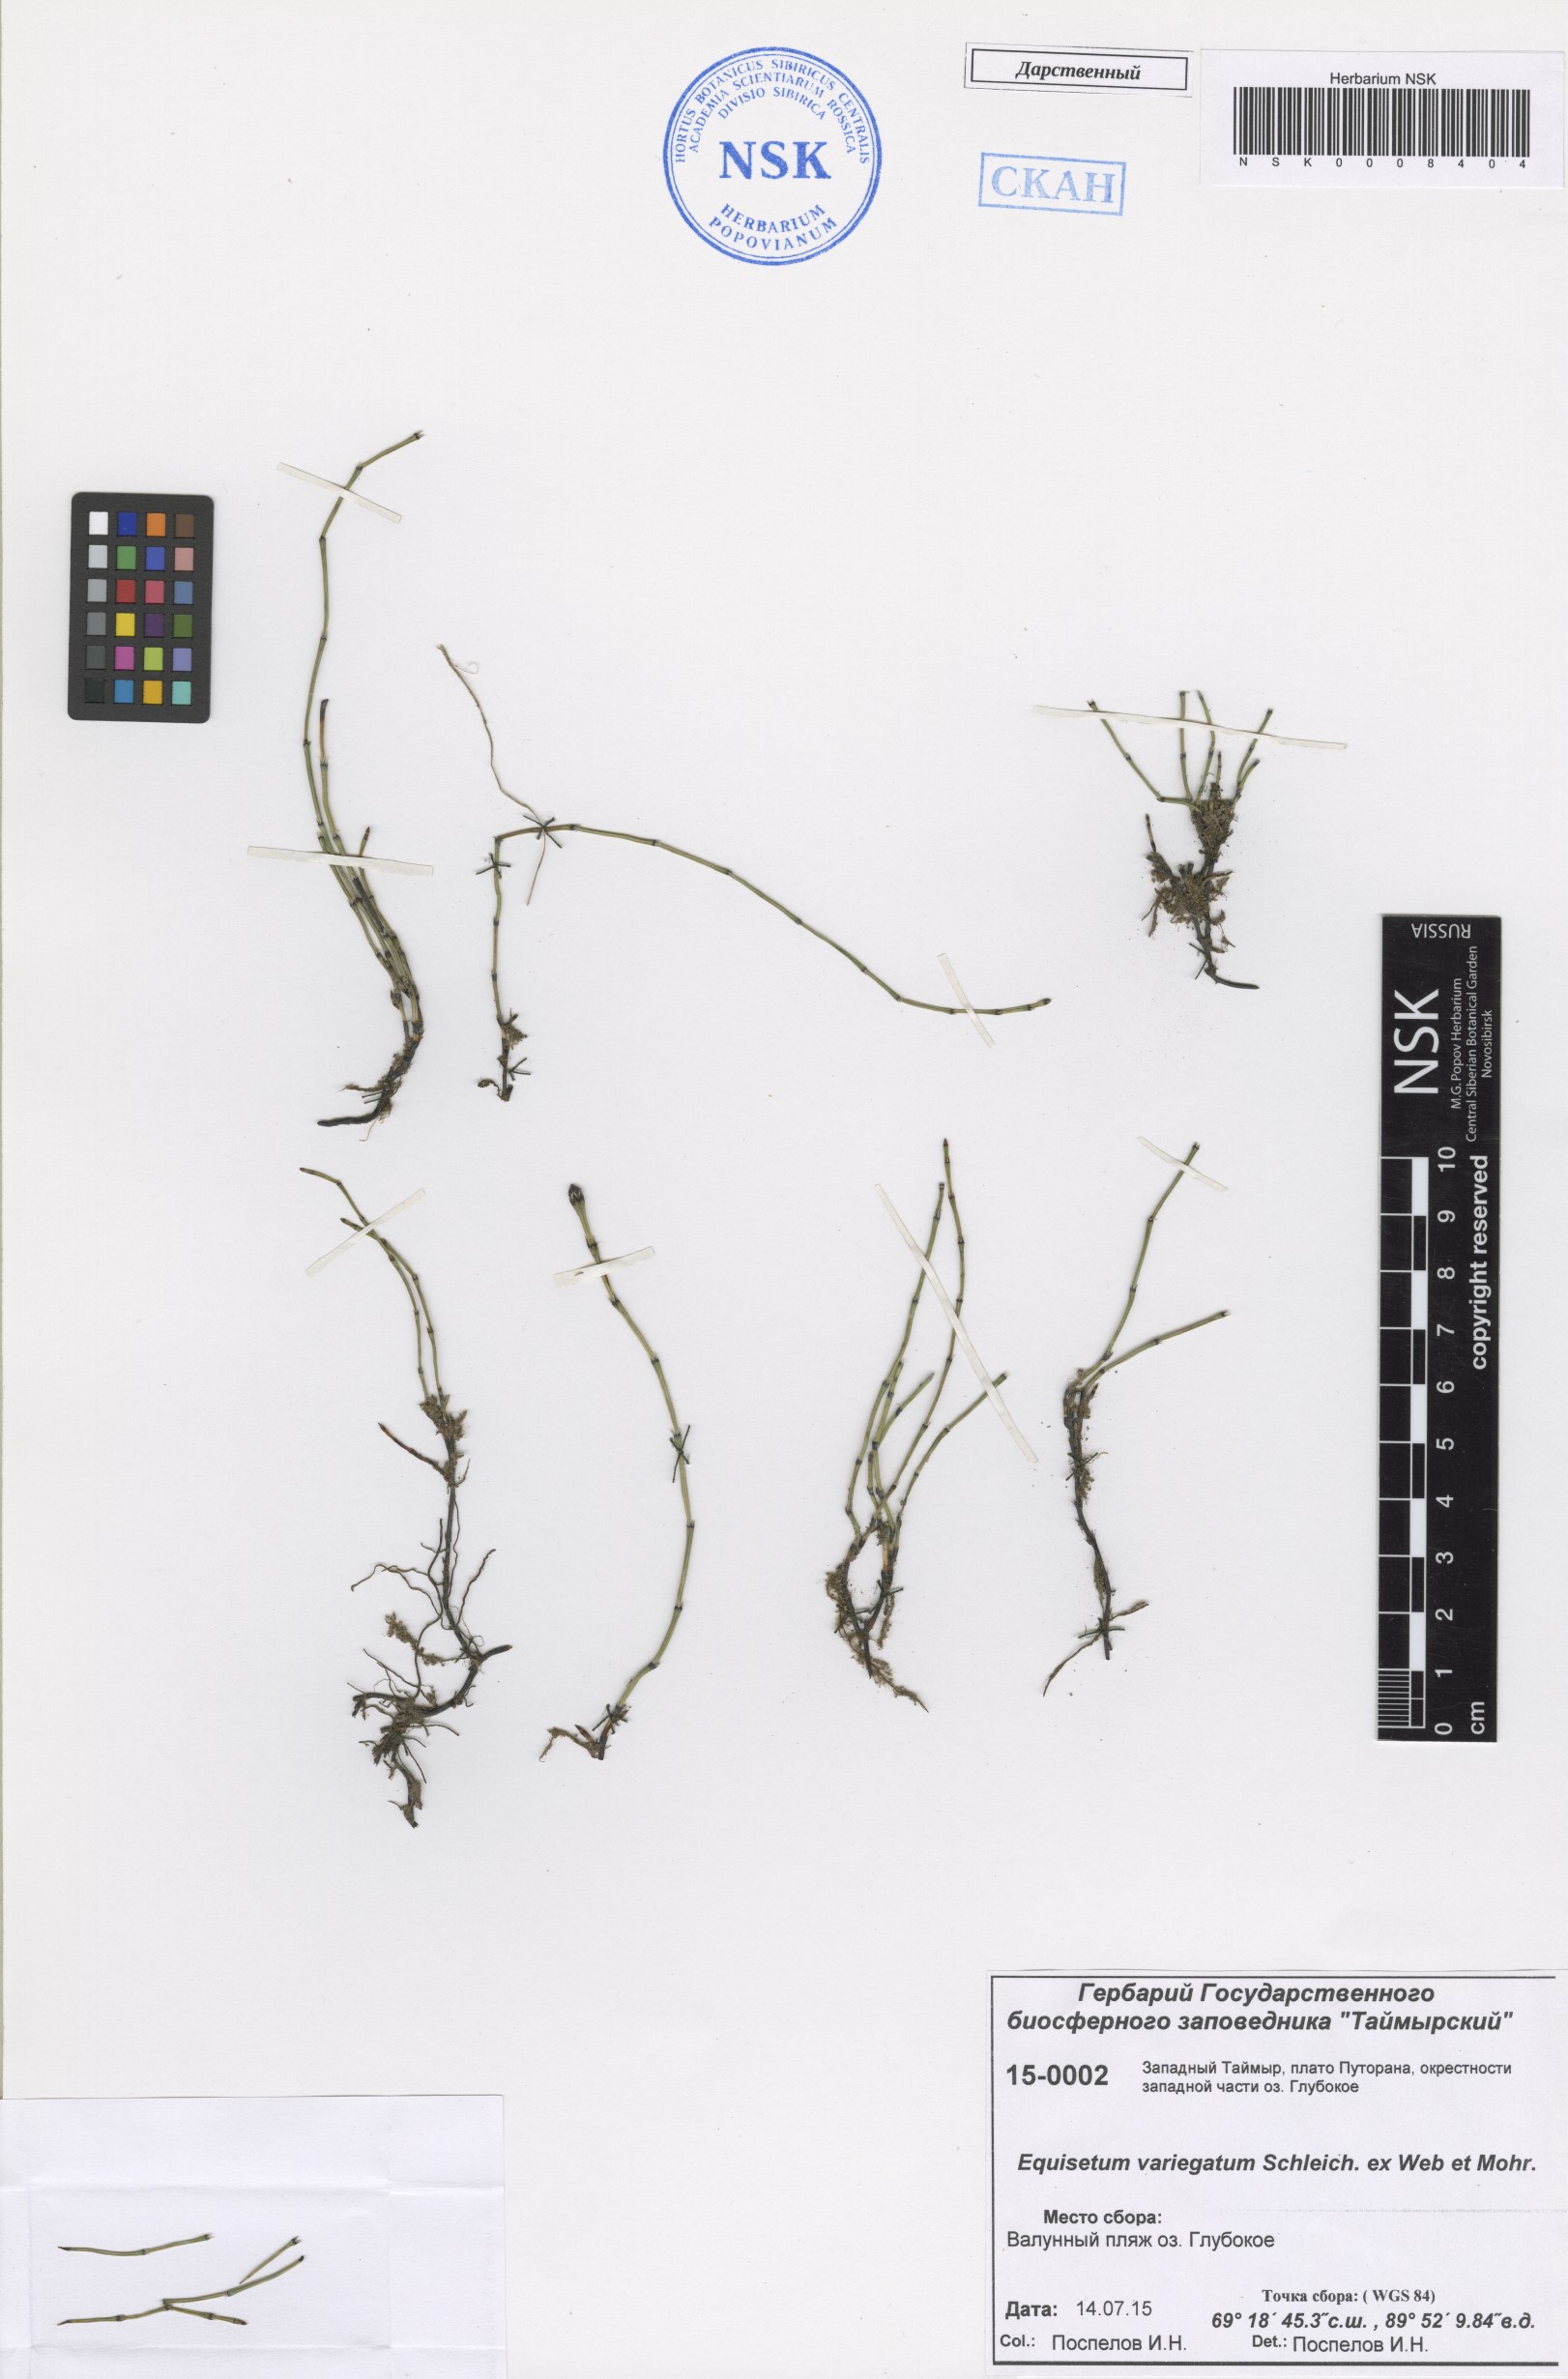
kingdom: Plantae
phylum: Tracheophyta
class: Polypodiopsida
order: Equisetales
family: Equisetaceae
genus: Equisetum
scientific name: Equisetum variegatum
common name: Variegated horsetail
